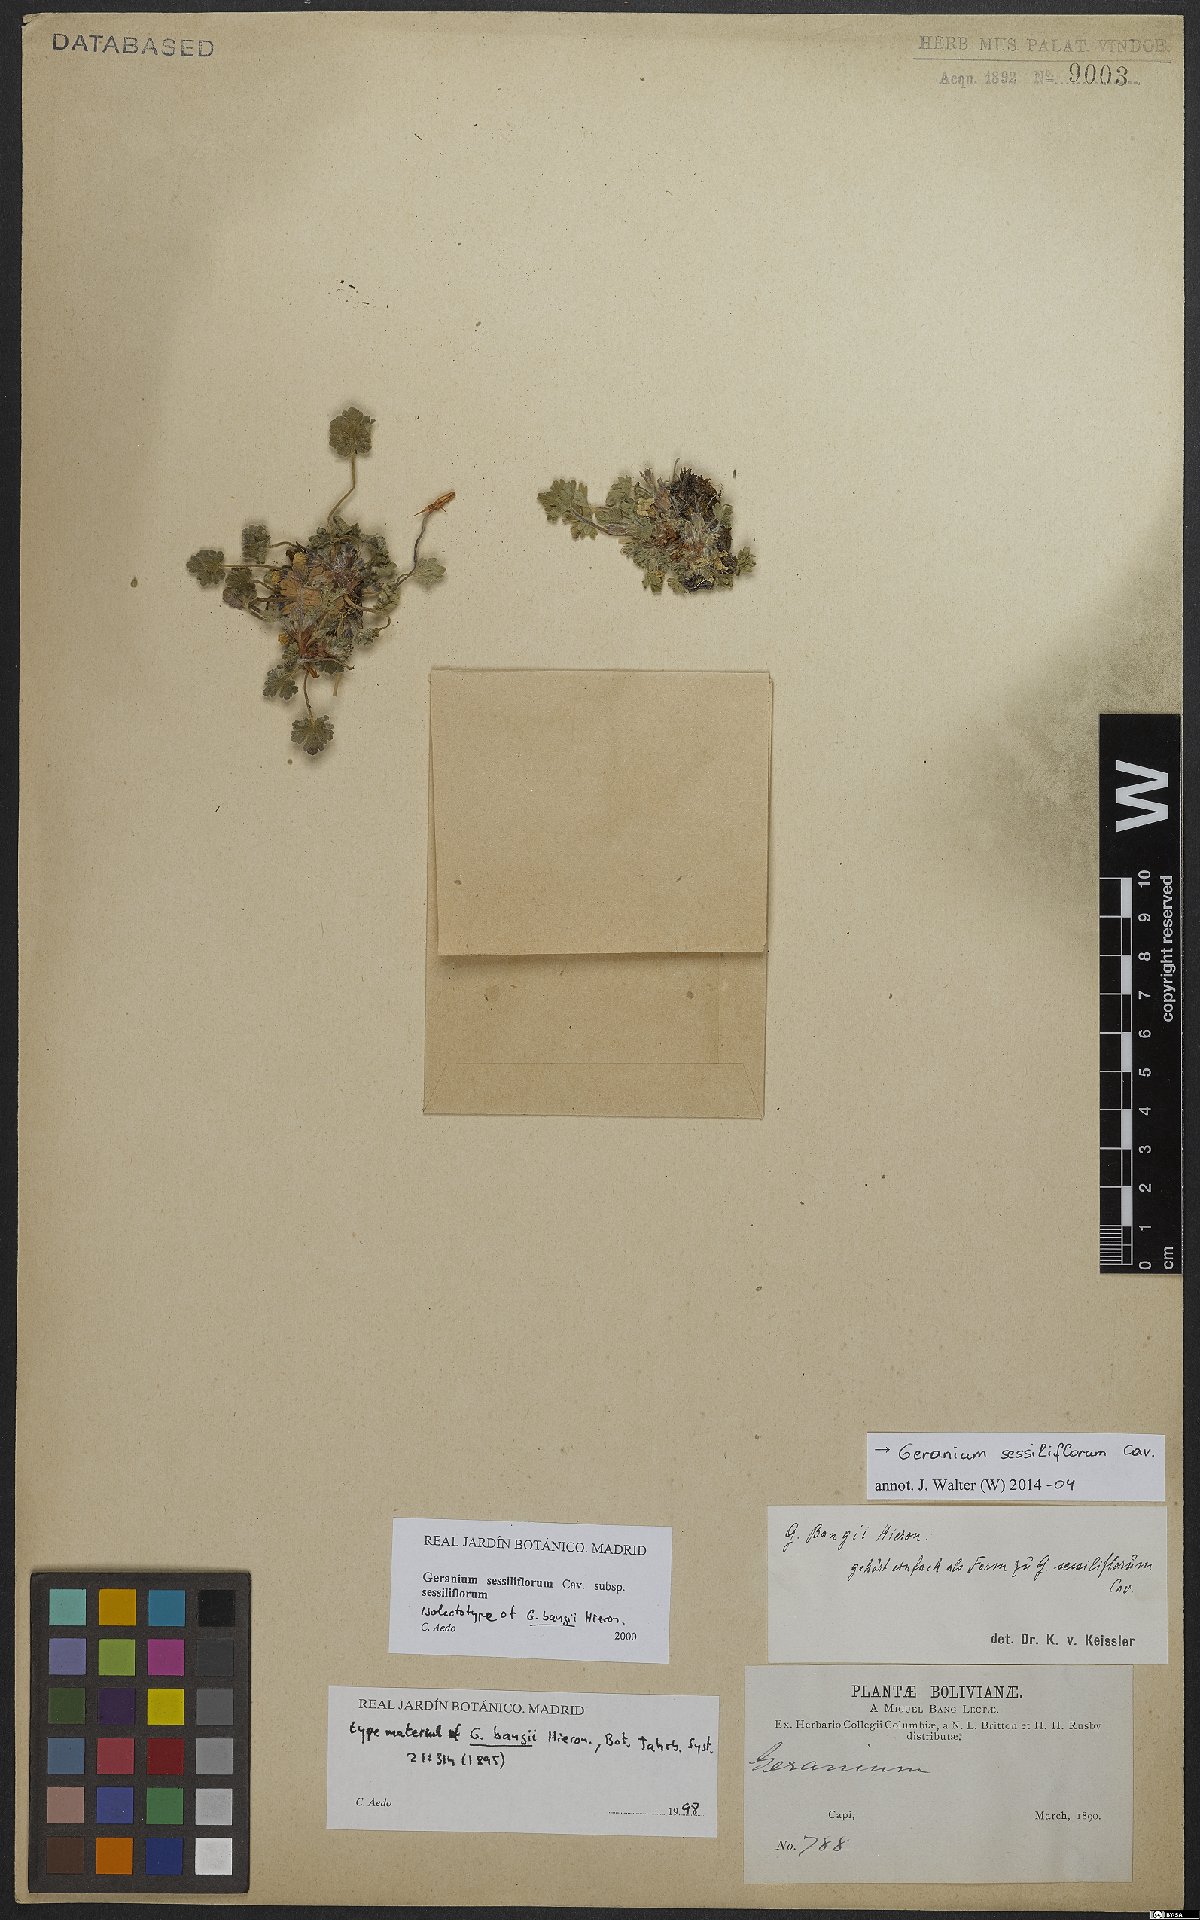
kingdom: Plantae
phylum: Tracheophyta
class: Magnoliopsida
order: Geraniales
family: Geraniaceae
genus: Geranium
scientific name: Geranium sessiliflorum
